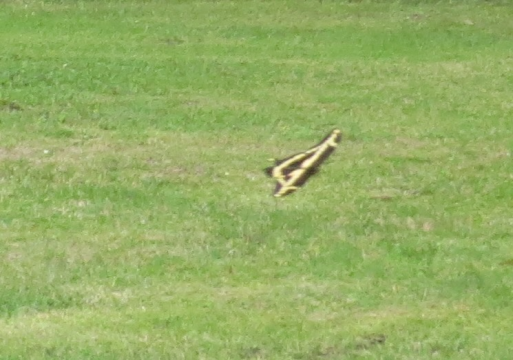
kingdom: Animalia
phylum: Arthropoda
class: Insecta
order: Lepidoptera
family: Papilionidae
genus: Papilio
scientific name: Papilio cresphontes
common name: Eastern Giant Swallowtail
